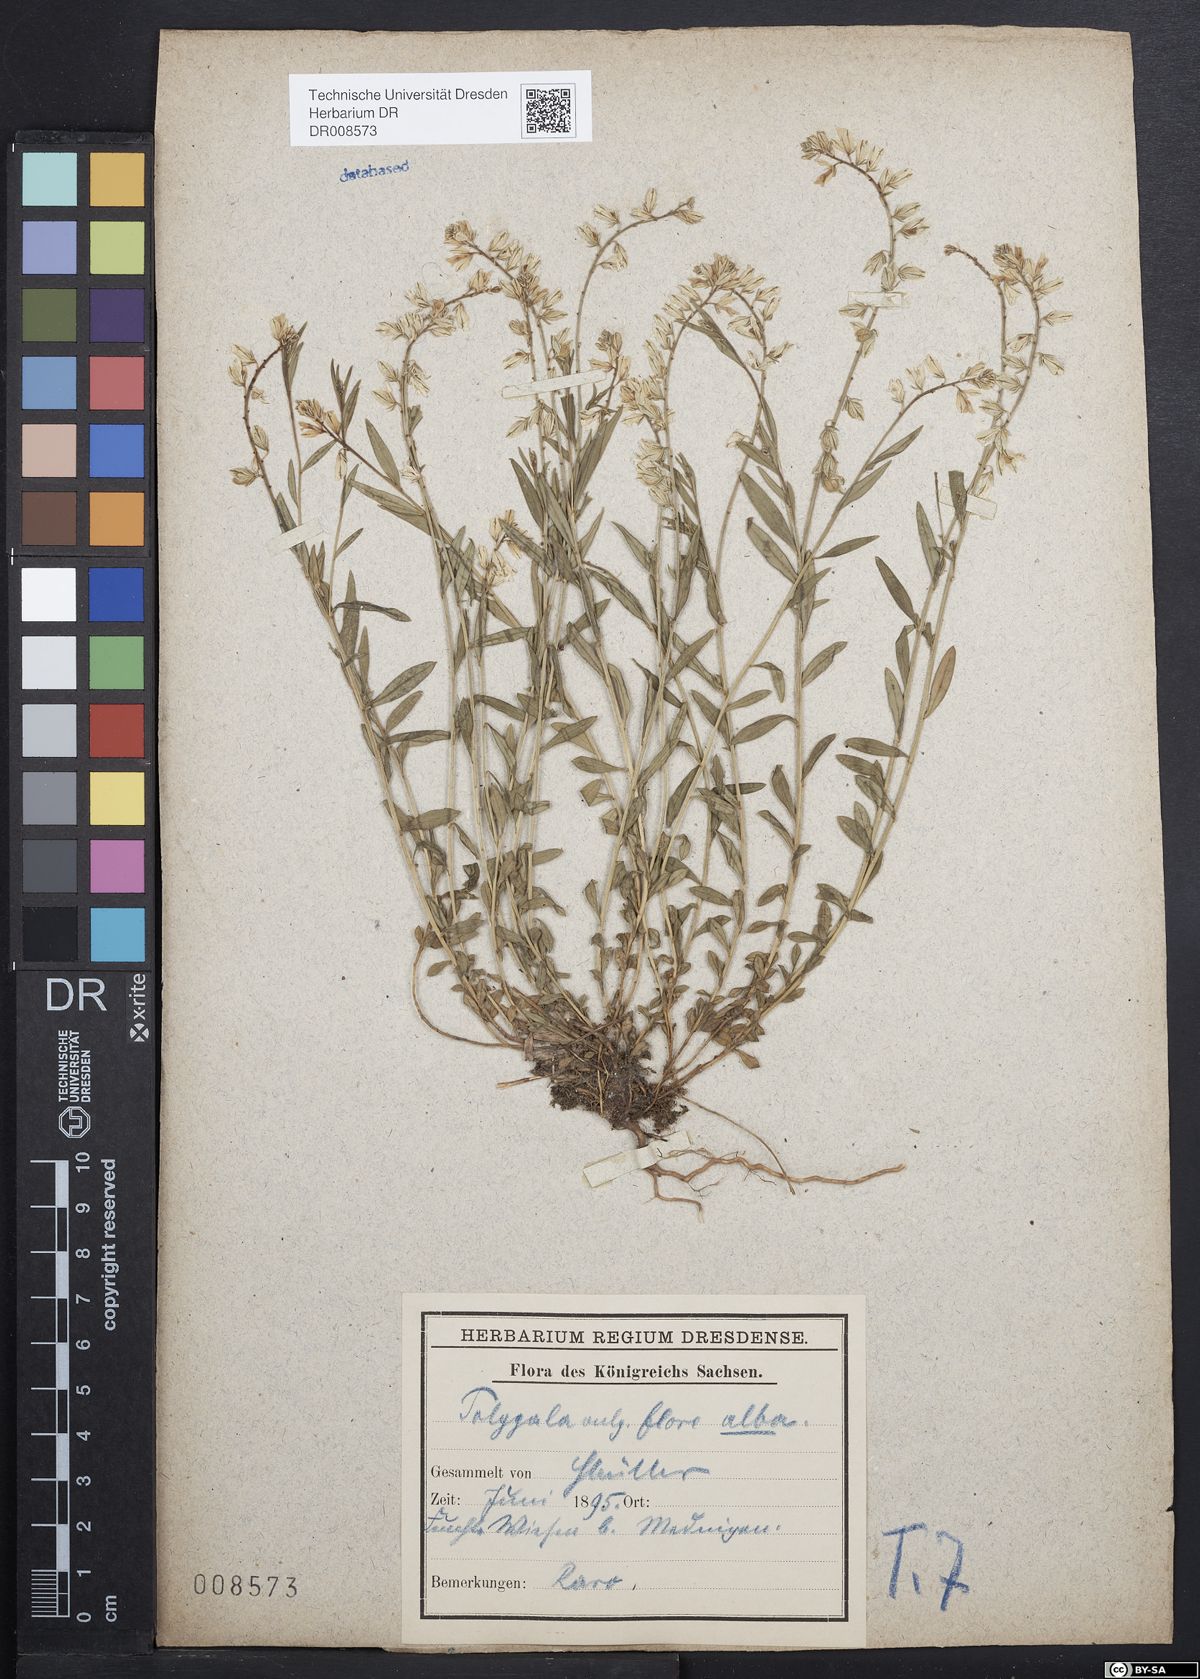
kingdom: Plantae
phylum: Tracheophyta
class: Magnoliopsida
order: Fabales
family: Polygalaceae
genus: Polygala
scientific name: Polygala vulgaris
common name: Common milkwort
